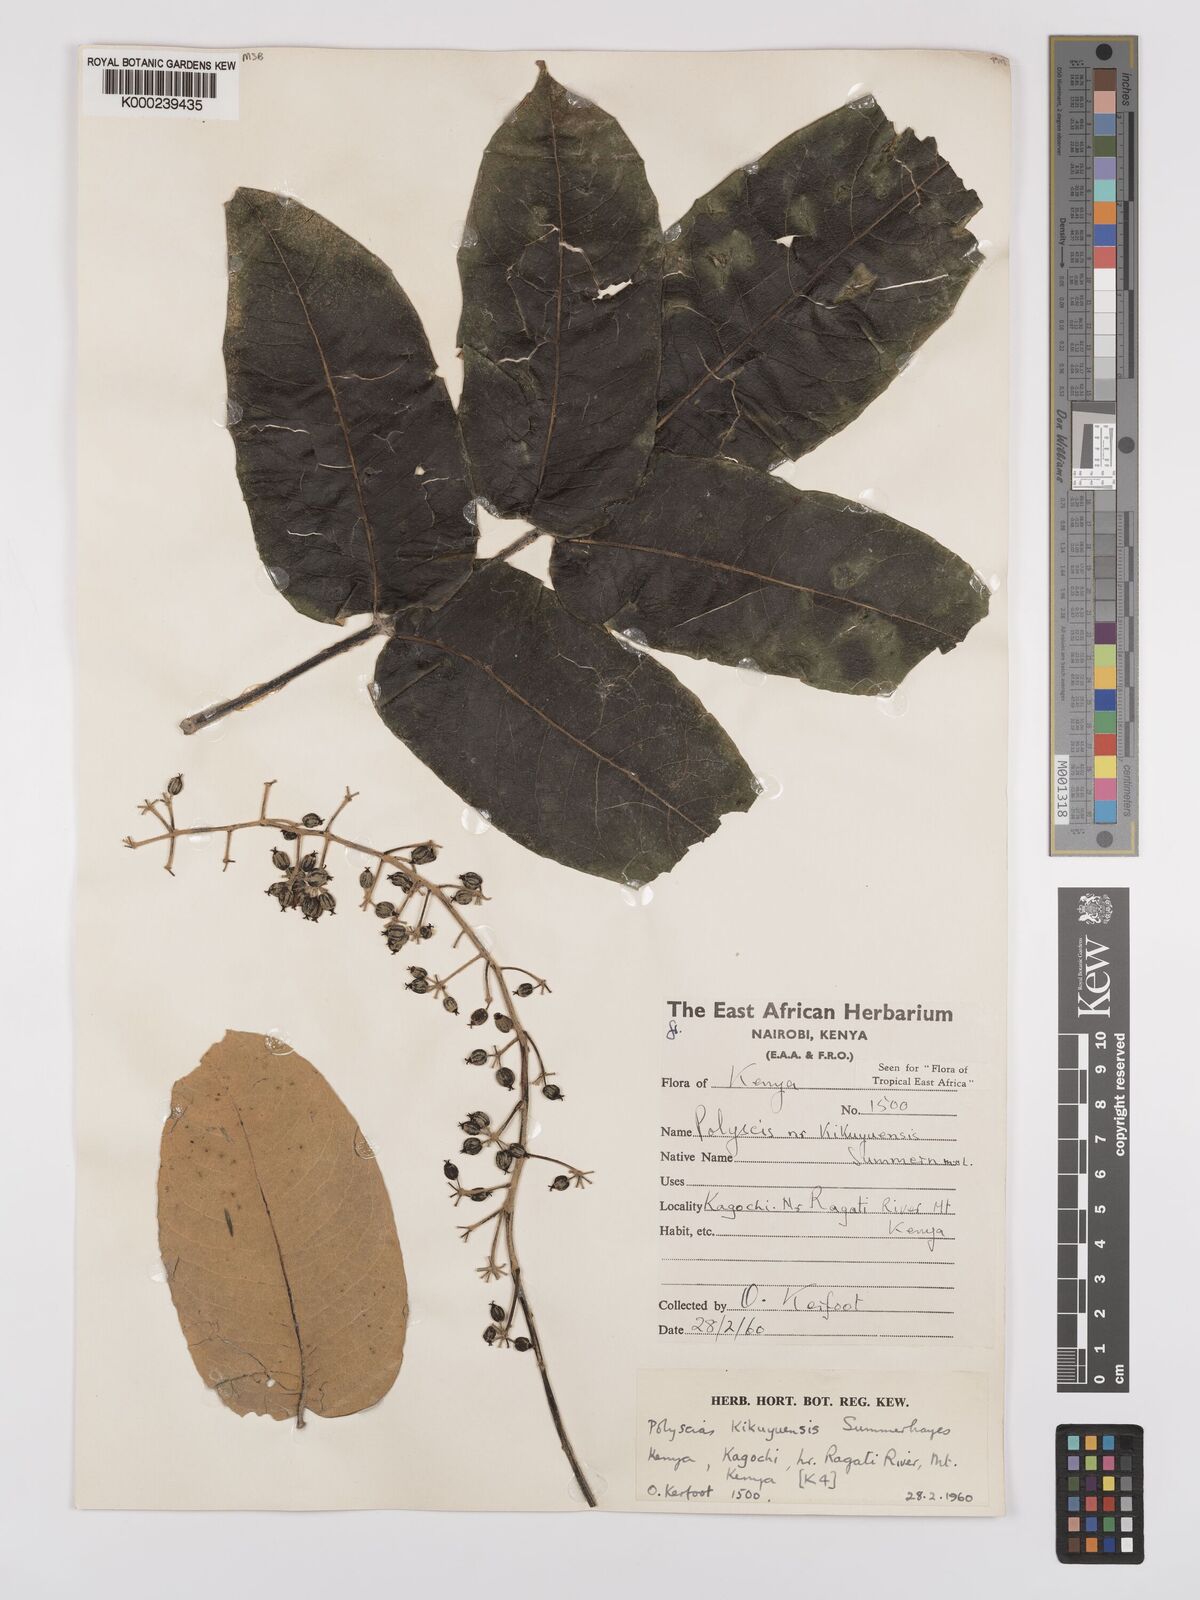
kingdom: Plantae
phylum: Tracheophyta
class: Magnoliopsida
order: Apiales
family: Araliaceae
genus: Polyscias
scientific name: Polyscias kikuyuensis
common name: Parasol tree
